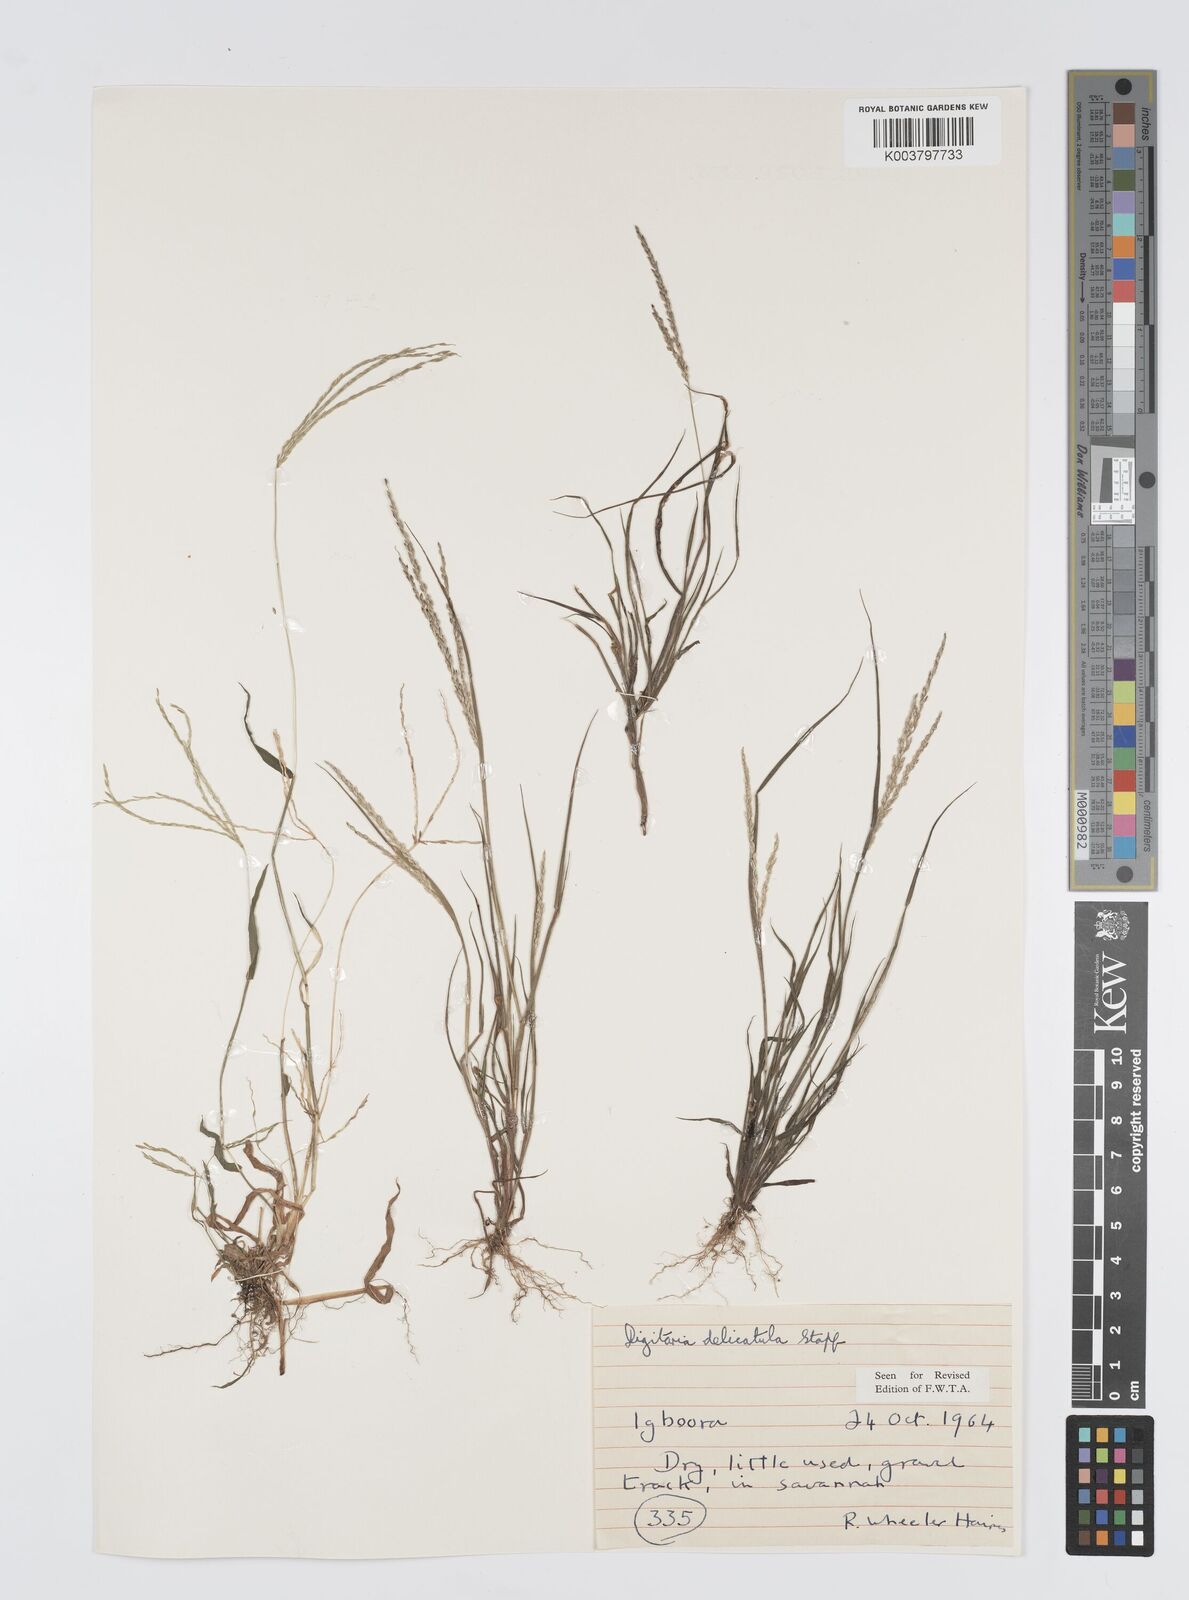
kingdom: Plantae
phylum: Tracheophyta
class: Liliopsida
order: Poales
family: Poaceae
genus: Digitaria
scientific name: Digitaria delicatula
